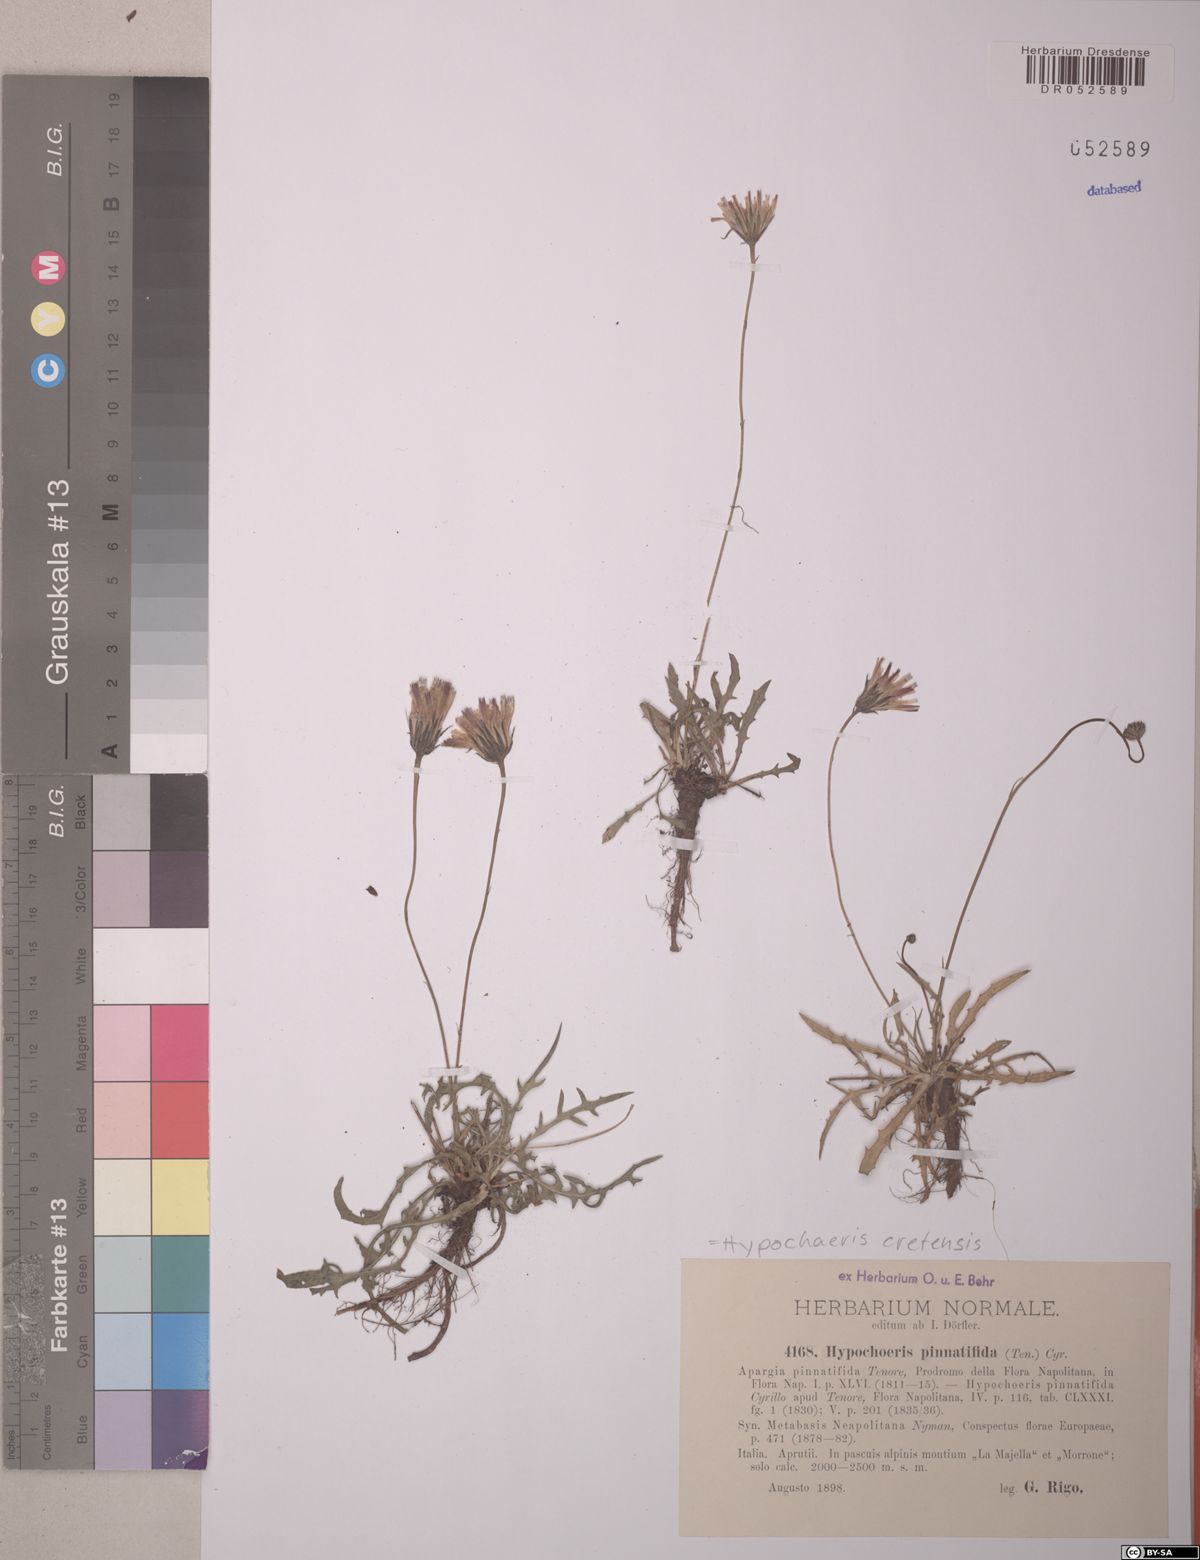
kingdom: Plantae
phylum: Tracheophyta
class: Magnoliopsida
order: Asterales
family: Asteraceae
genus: Hypochaeris
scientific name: Hypochaeris cretensis
